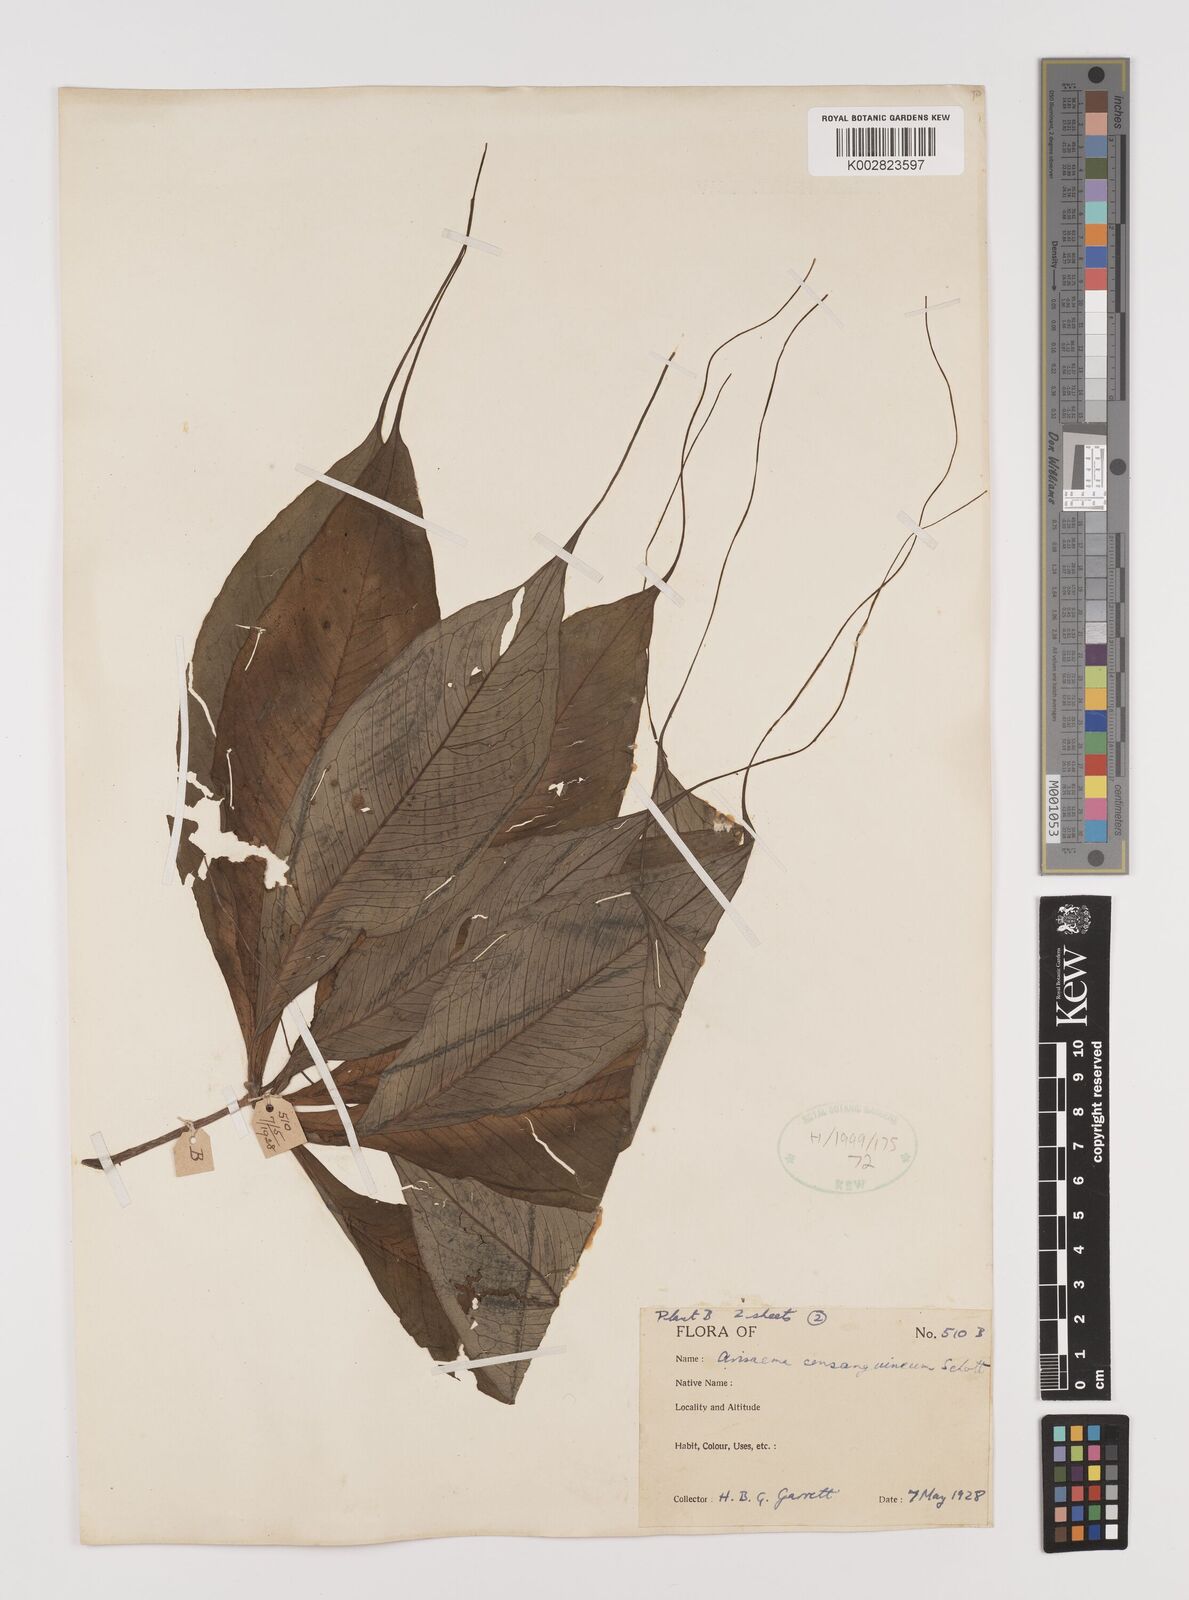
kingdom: Plantae
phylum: Tracheophyta
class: Liliopsida
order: Alismatales
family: Araceae
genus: Arisaema
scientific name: Arisaema consanguineum
